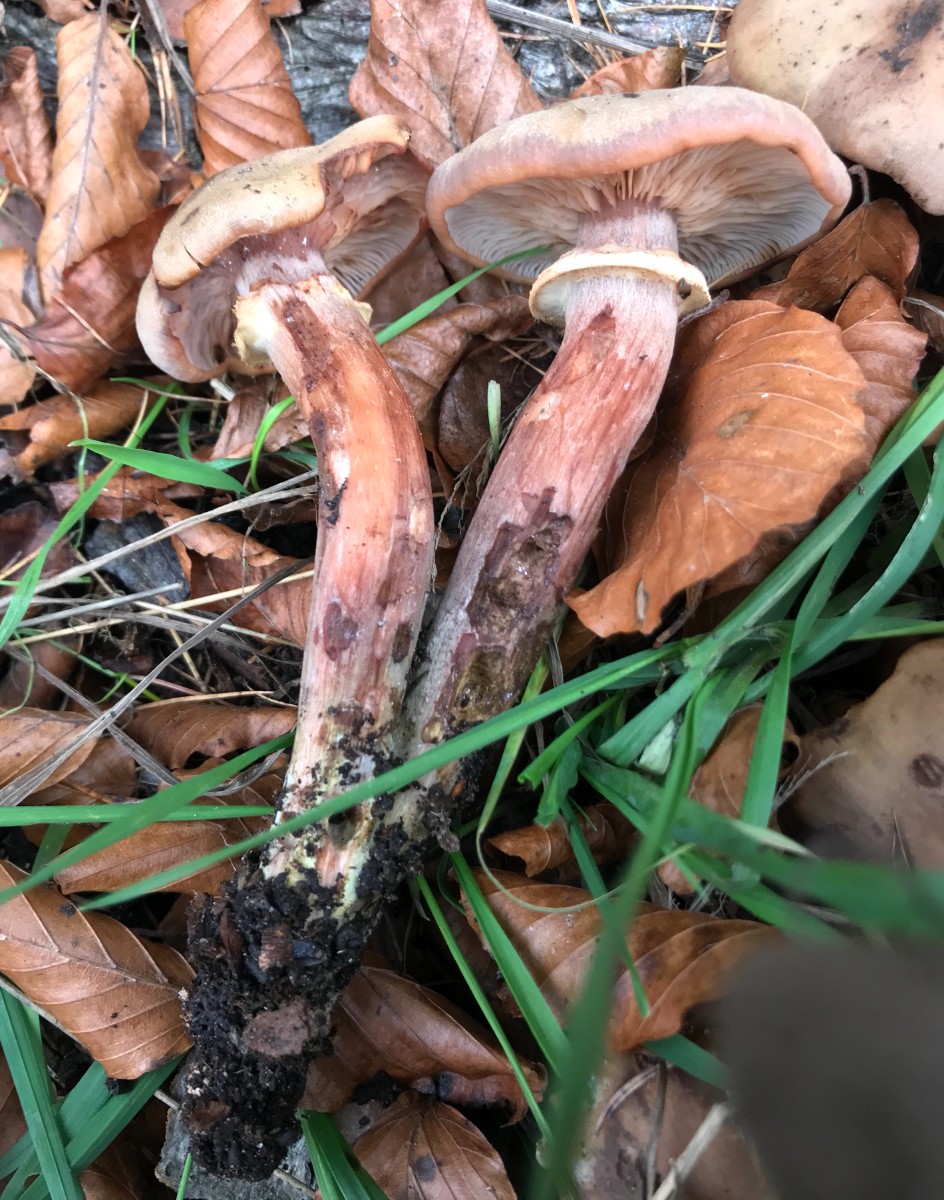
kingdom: Fungi
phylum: Basidiomycota
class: Agaricomycetes
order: Agaricales
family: Physalacriaceae
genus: Armillaria
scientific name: Armillaria mellea
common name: ægte honningsvamp
